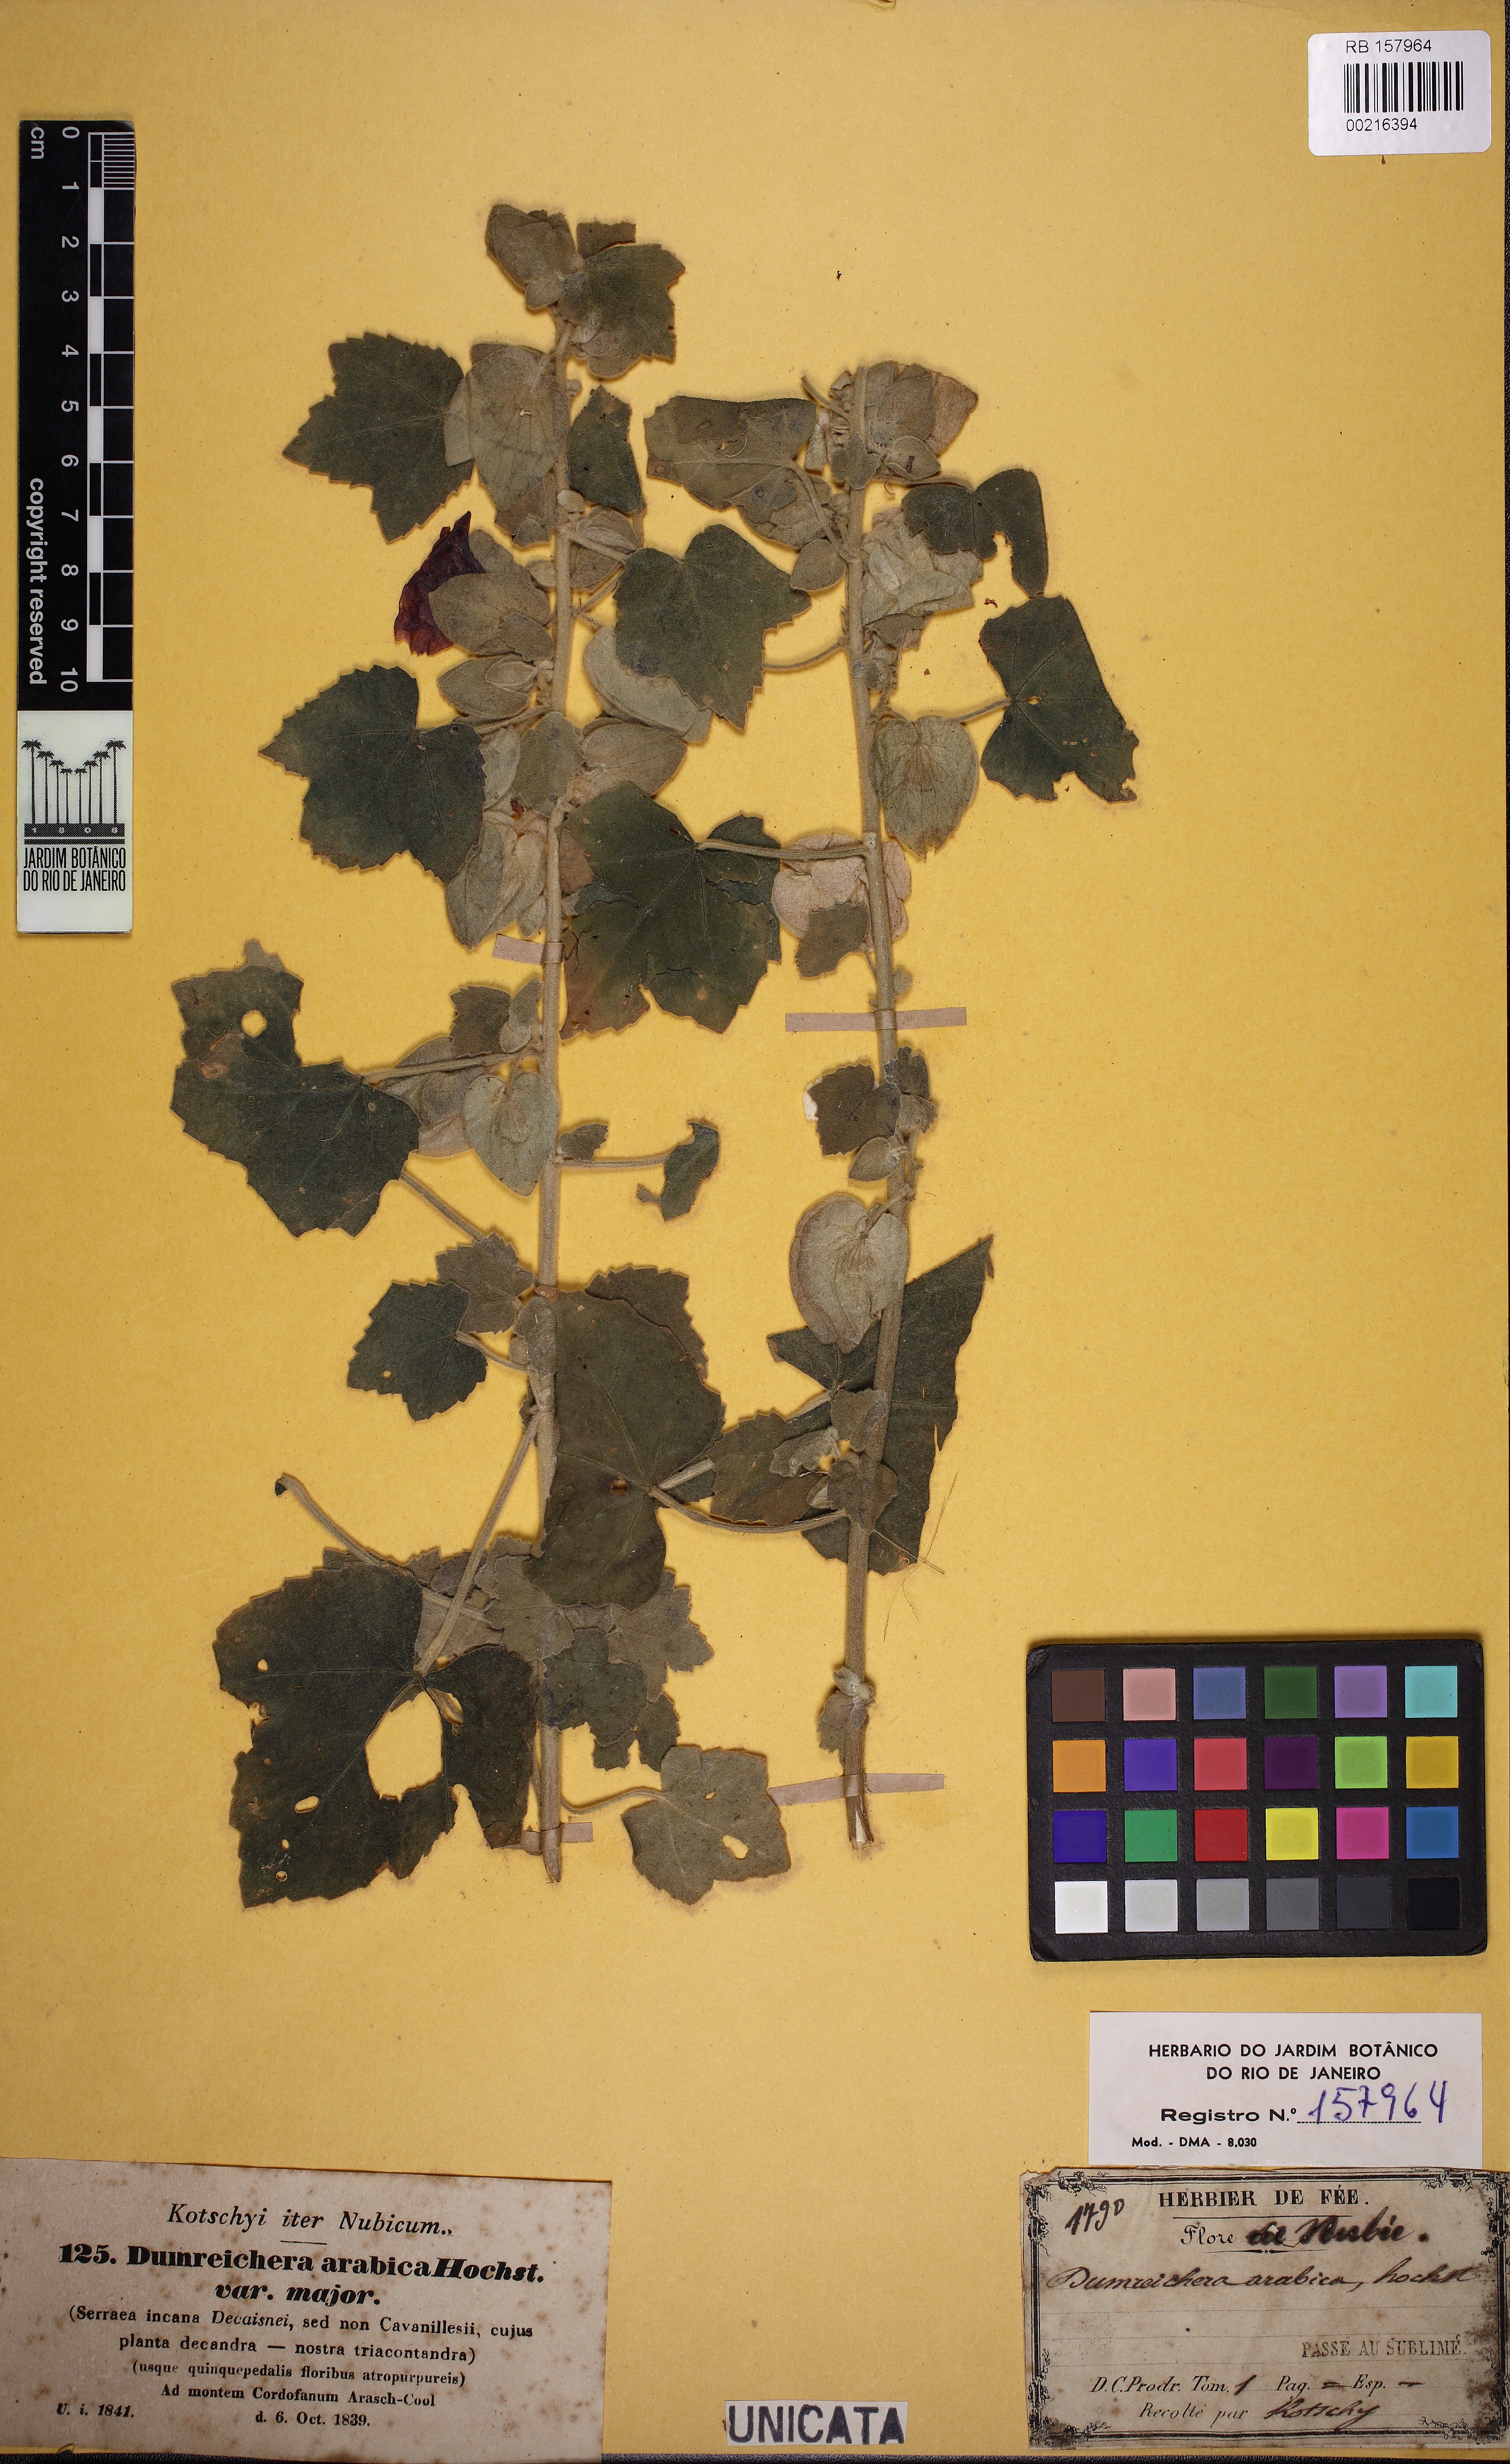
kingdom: Plantae
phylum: Tracheophyta
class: Magnoliopsida
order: Malvales
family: Malvaceae
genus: Senra
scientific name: Senra incana
